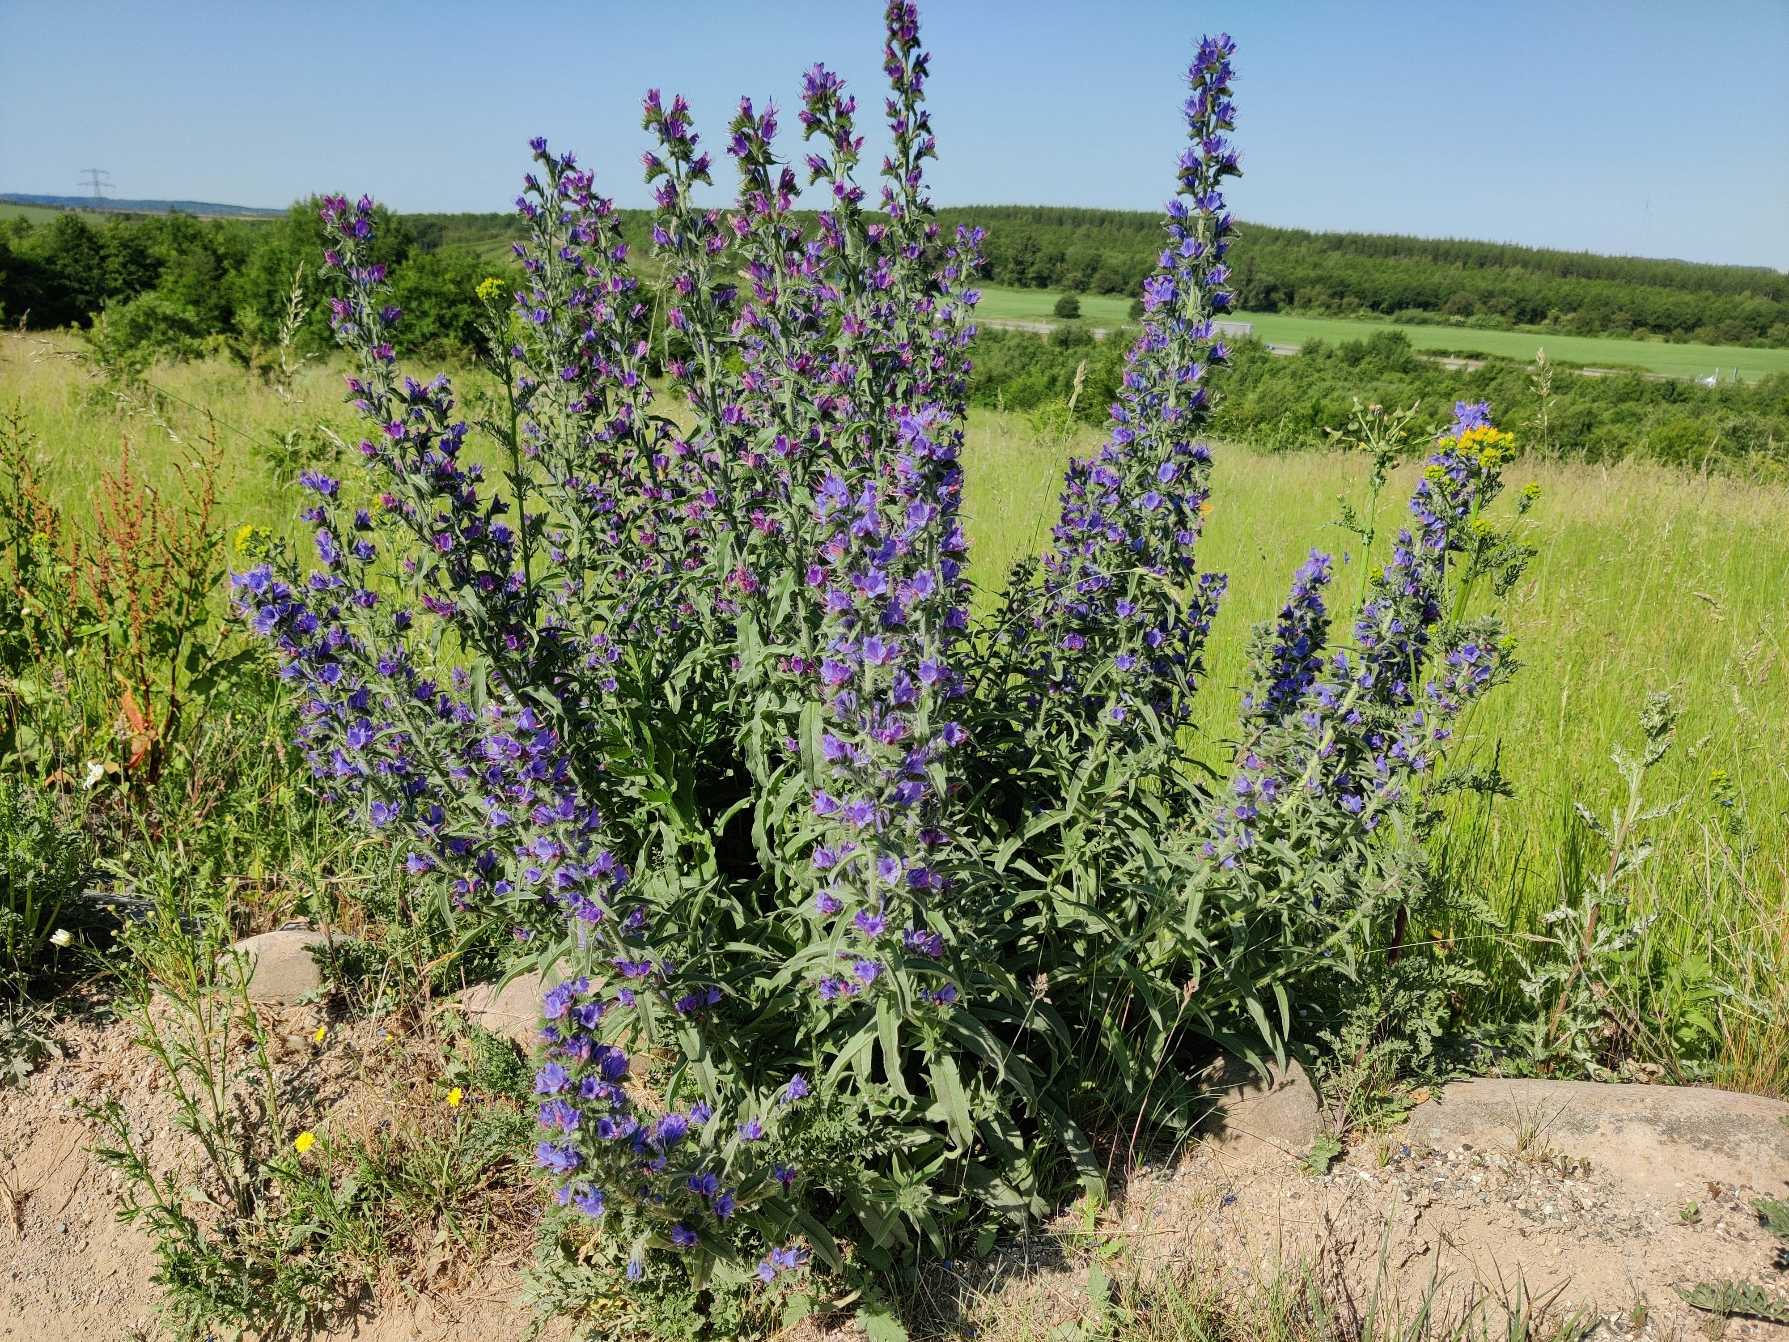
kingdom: Plantae
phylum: Tracheophyta
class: Magnoliopsida
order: Boraginales
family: Boraginaceae
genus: Echium
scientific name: Echium vulgare
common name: Slangehoved
